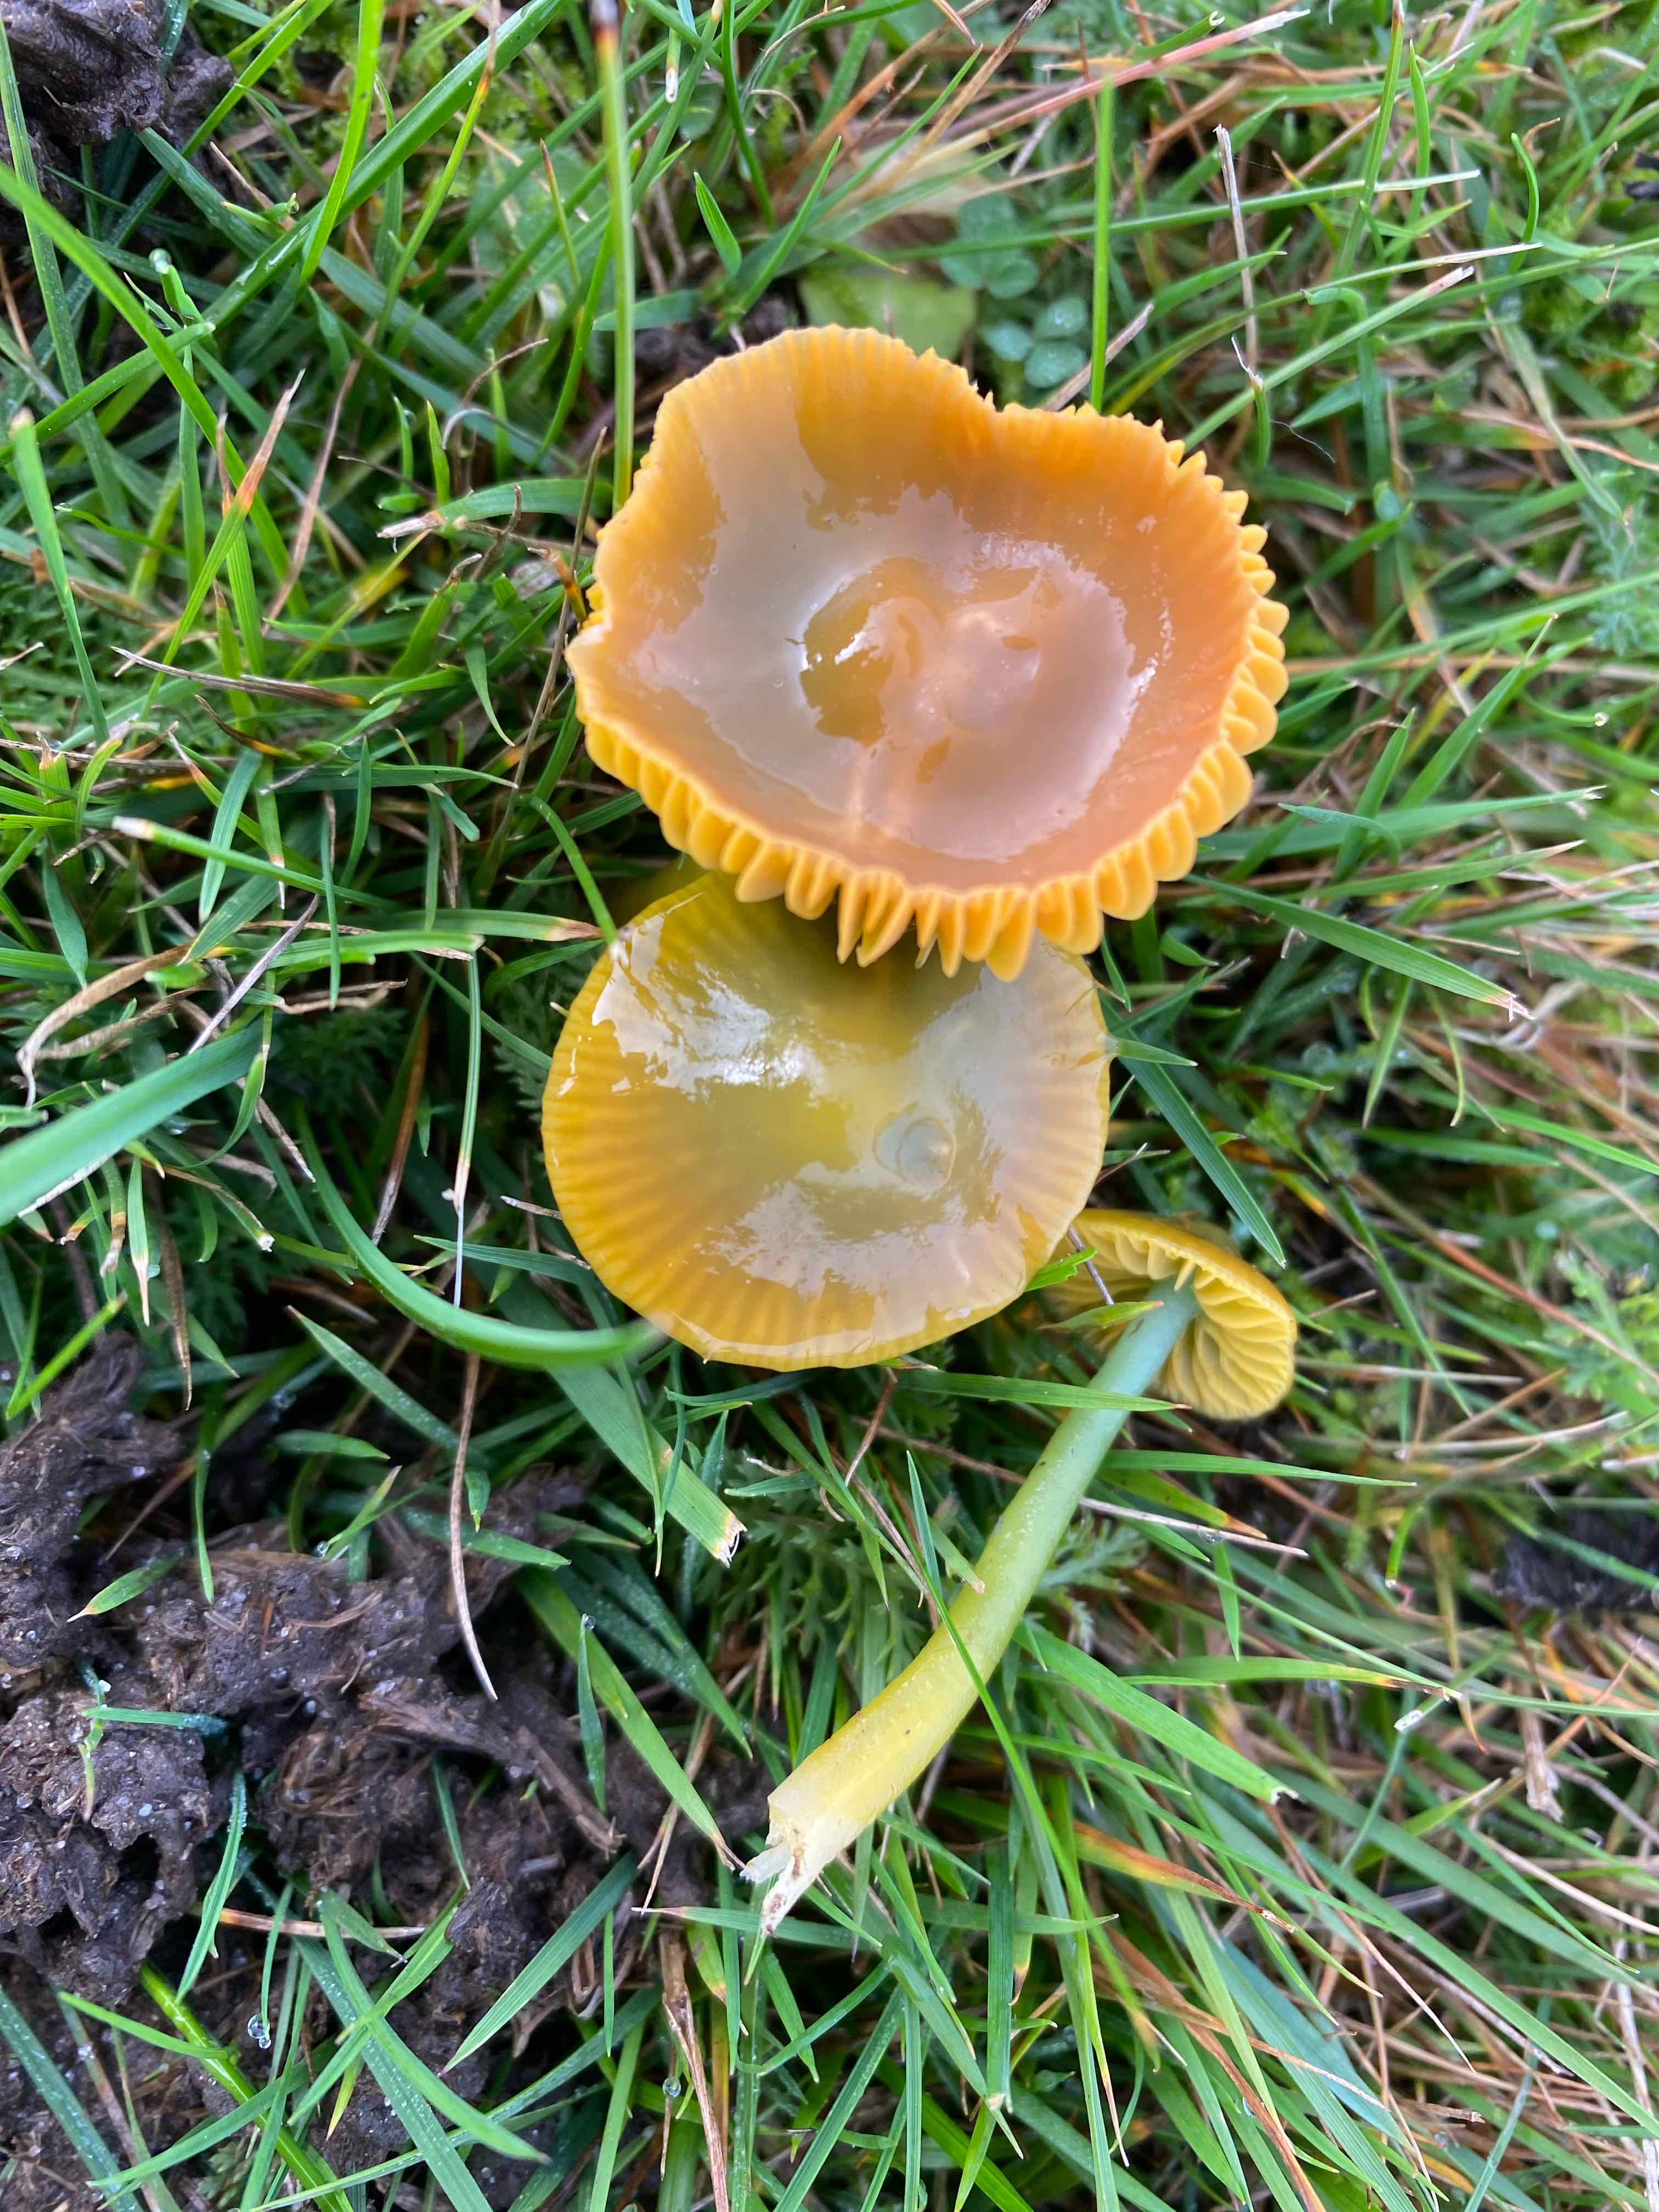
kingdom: Fungi
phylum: Basidiomycota
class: Agaricomycetes
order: Agaricales
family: Hygrophoraceae
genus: Gliophorus
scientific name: Gliophorus psittacinus
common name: papegøje-vokshat
